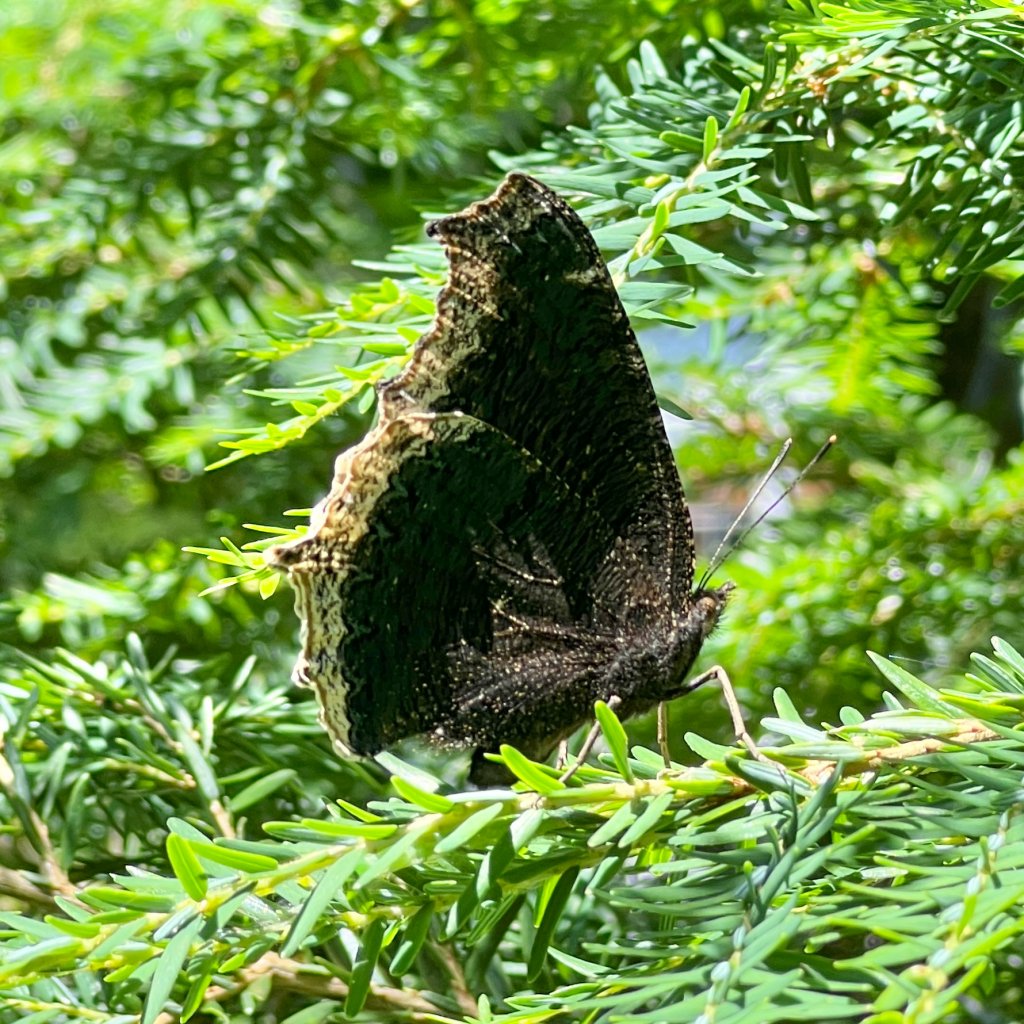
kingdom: Animalia
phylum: Arthropoda
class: Insecta
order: Lepidoptera
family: Nymphalidae
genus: Nymphalis
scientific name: Nymphalis antiopa
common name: Mourning Cloak
